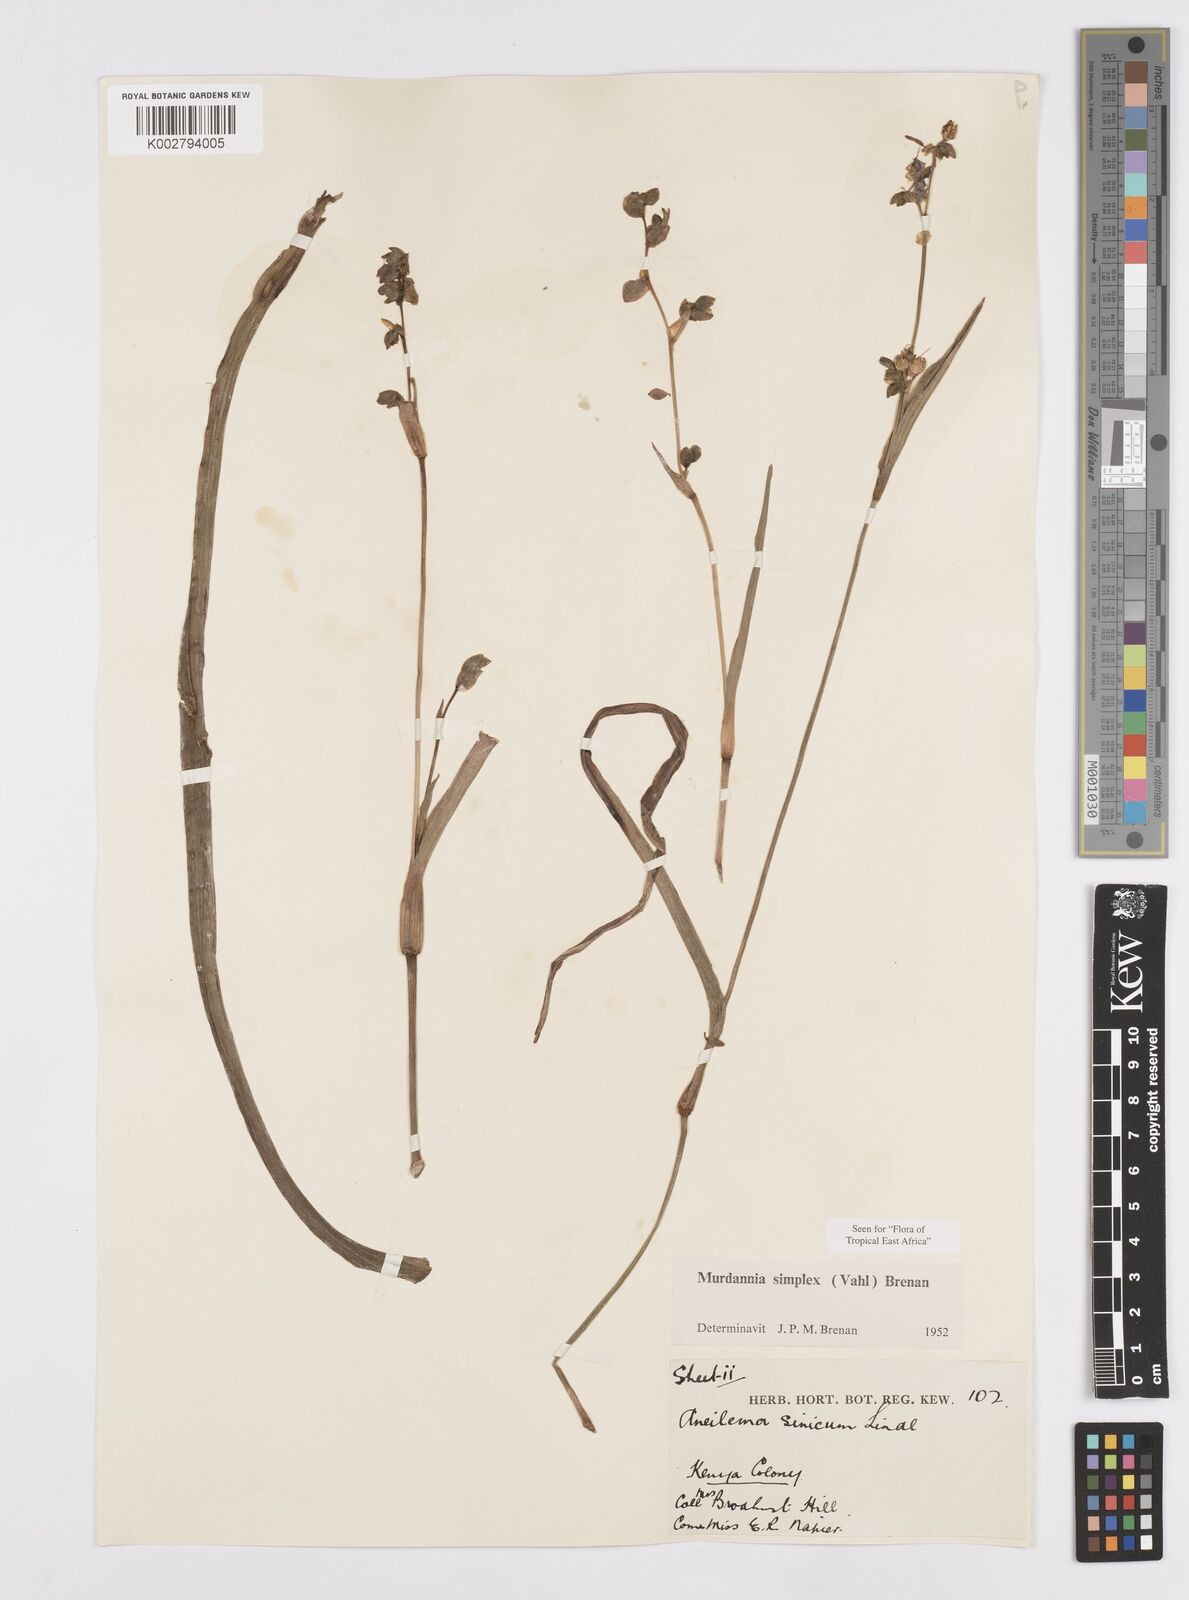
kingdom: Plantae
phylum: Tracheophyta
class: Liliopsida
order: Commelinales
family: Commelinaceae
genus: Murdannia
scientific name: Murdannia simplex
